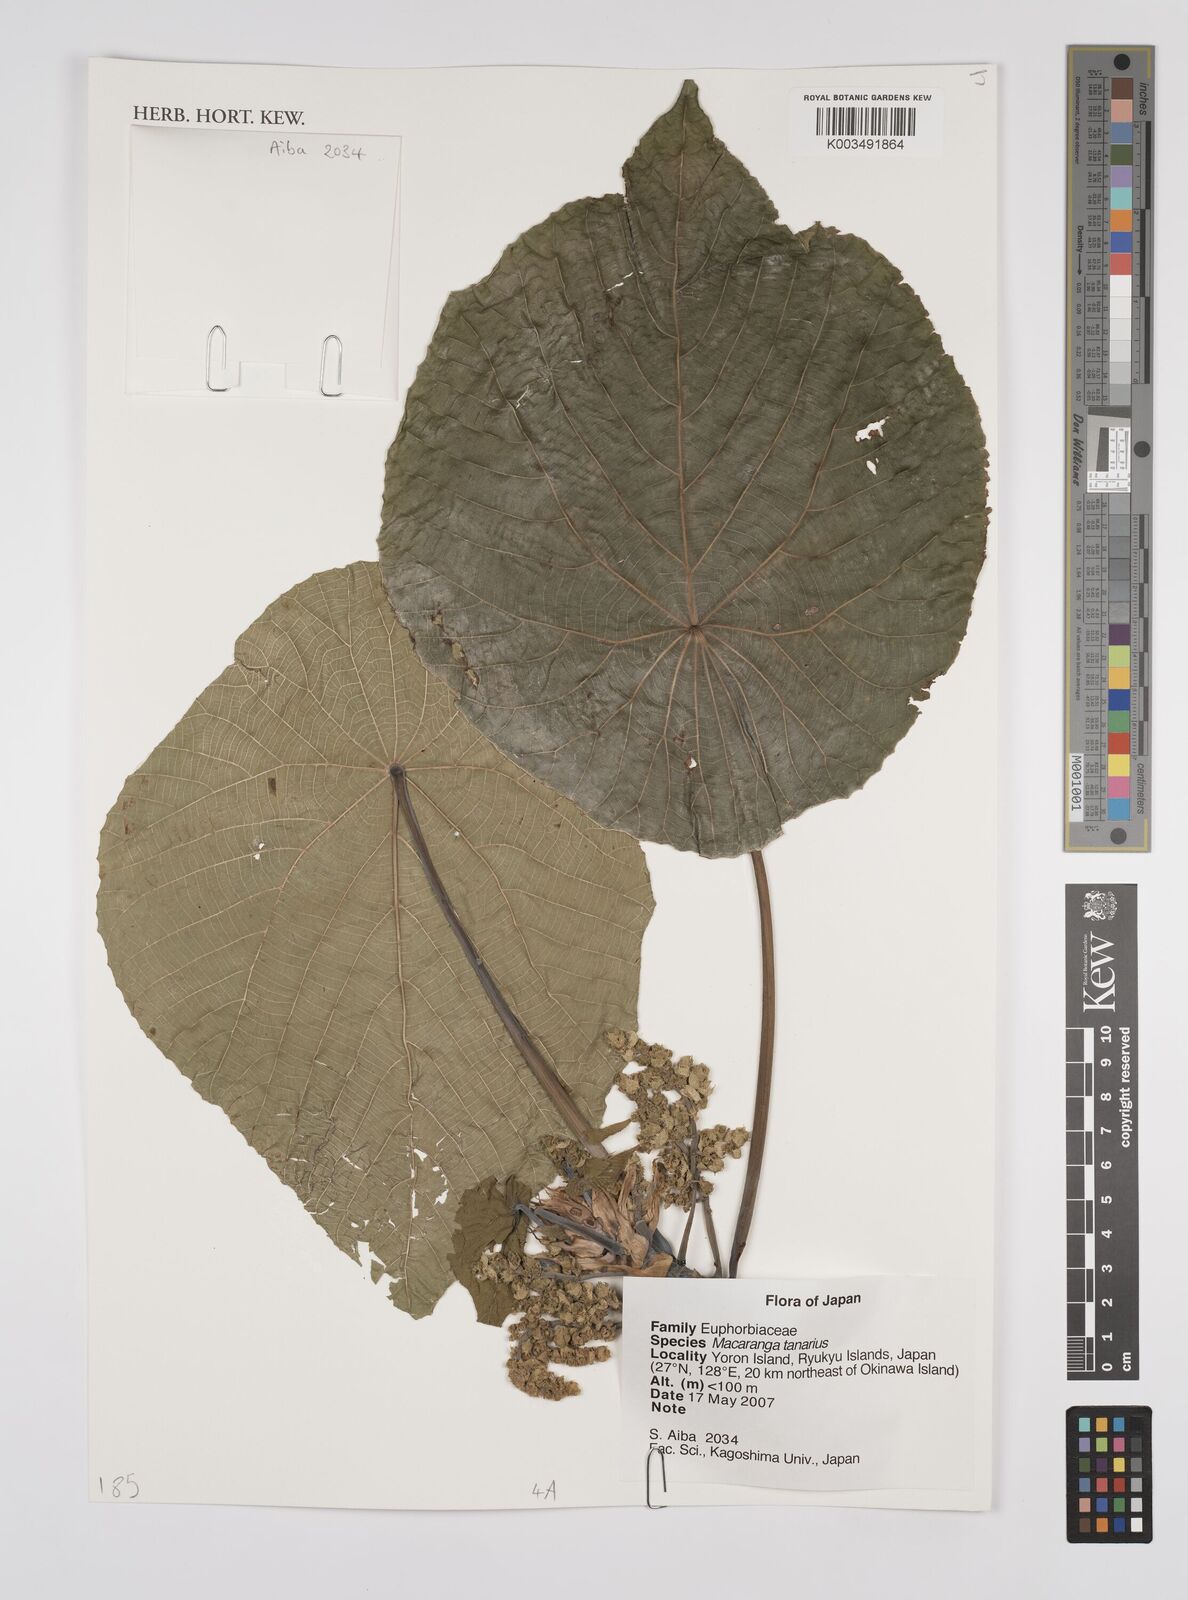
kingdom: Plantae
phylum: Tracheophyta
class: Magnoliopsida
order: Malpighiales
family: Euphorbiaceae
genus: Macaranga
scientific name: Macaranga tanarius
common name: Parasol leaf tree
